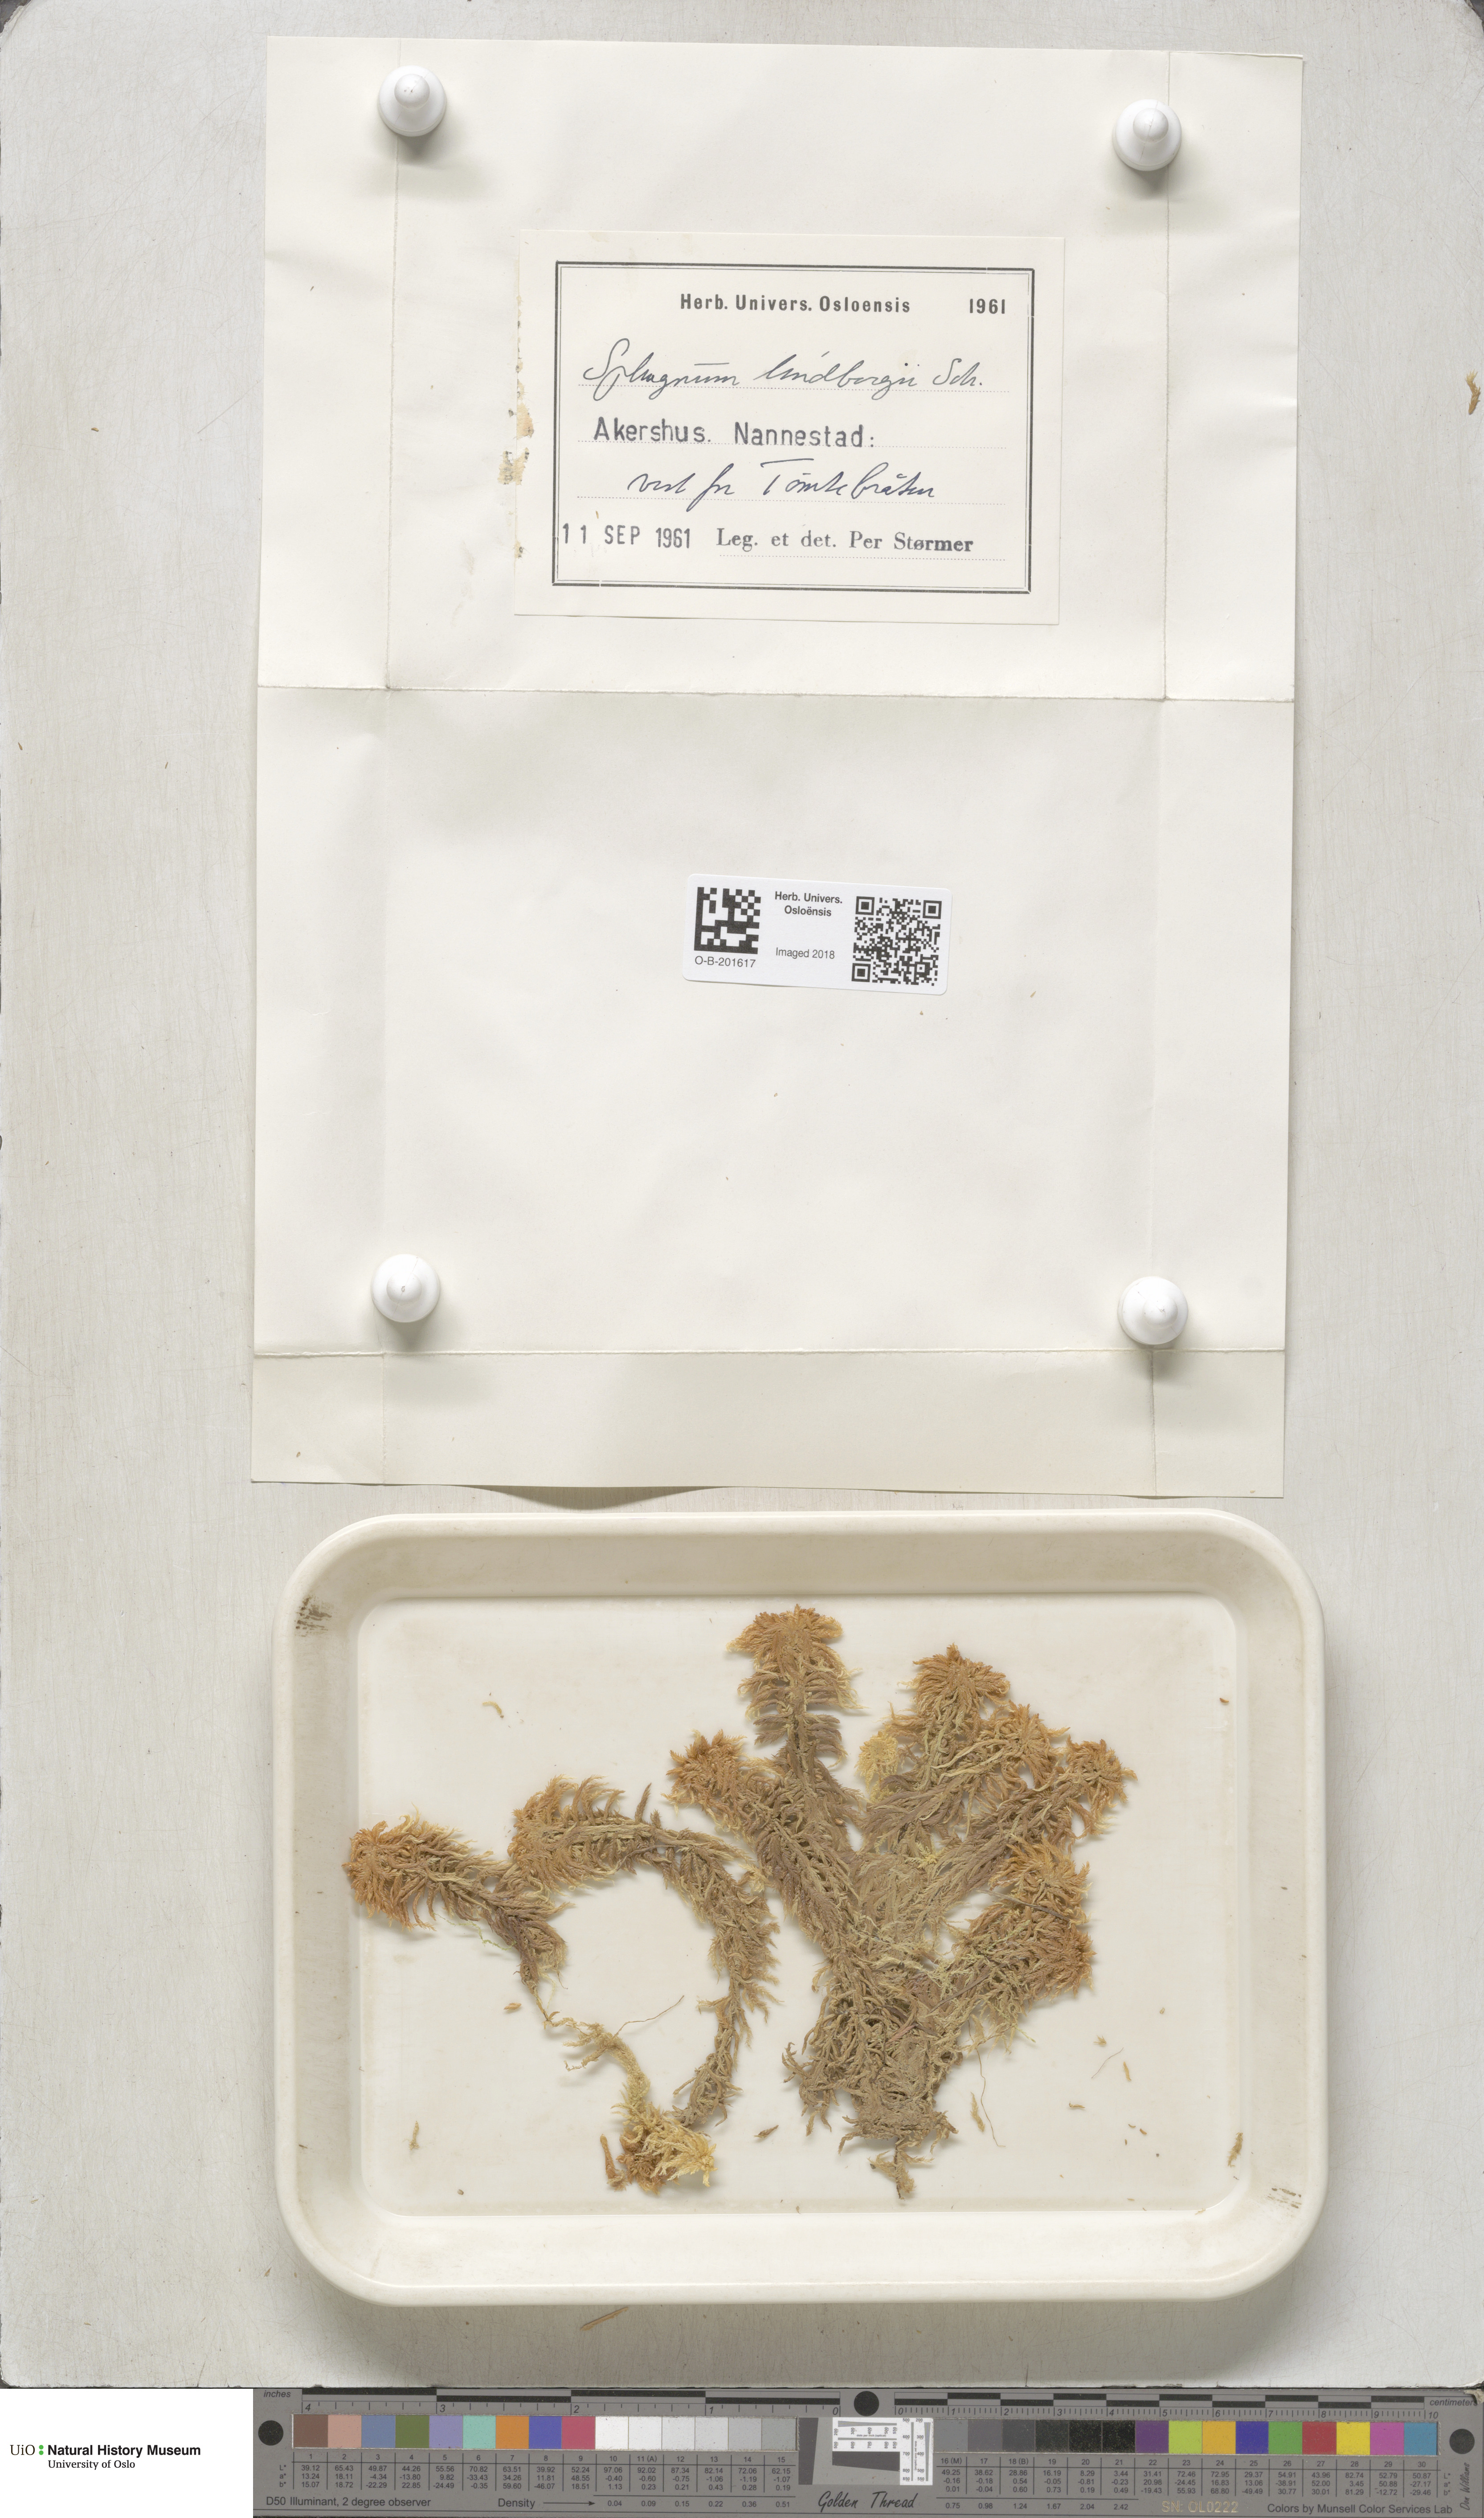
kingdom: Plantae
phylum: Bryophyta
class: Sphagnopsida
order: Sphagnales
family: Sphagnaceae
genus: Sphagnum
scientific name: Sphagnum lindbergii
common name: Lindberg's peat moss
